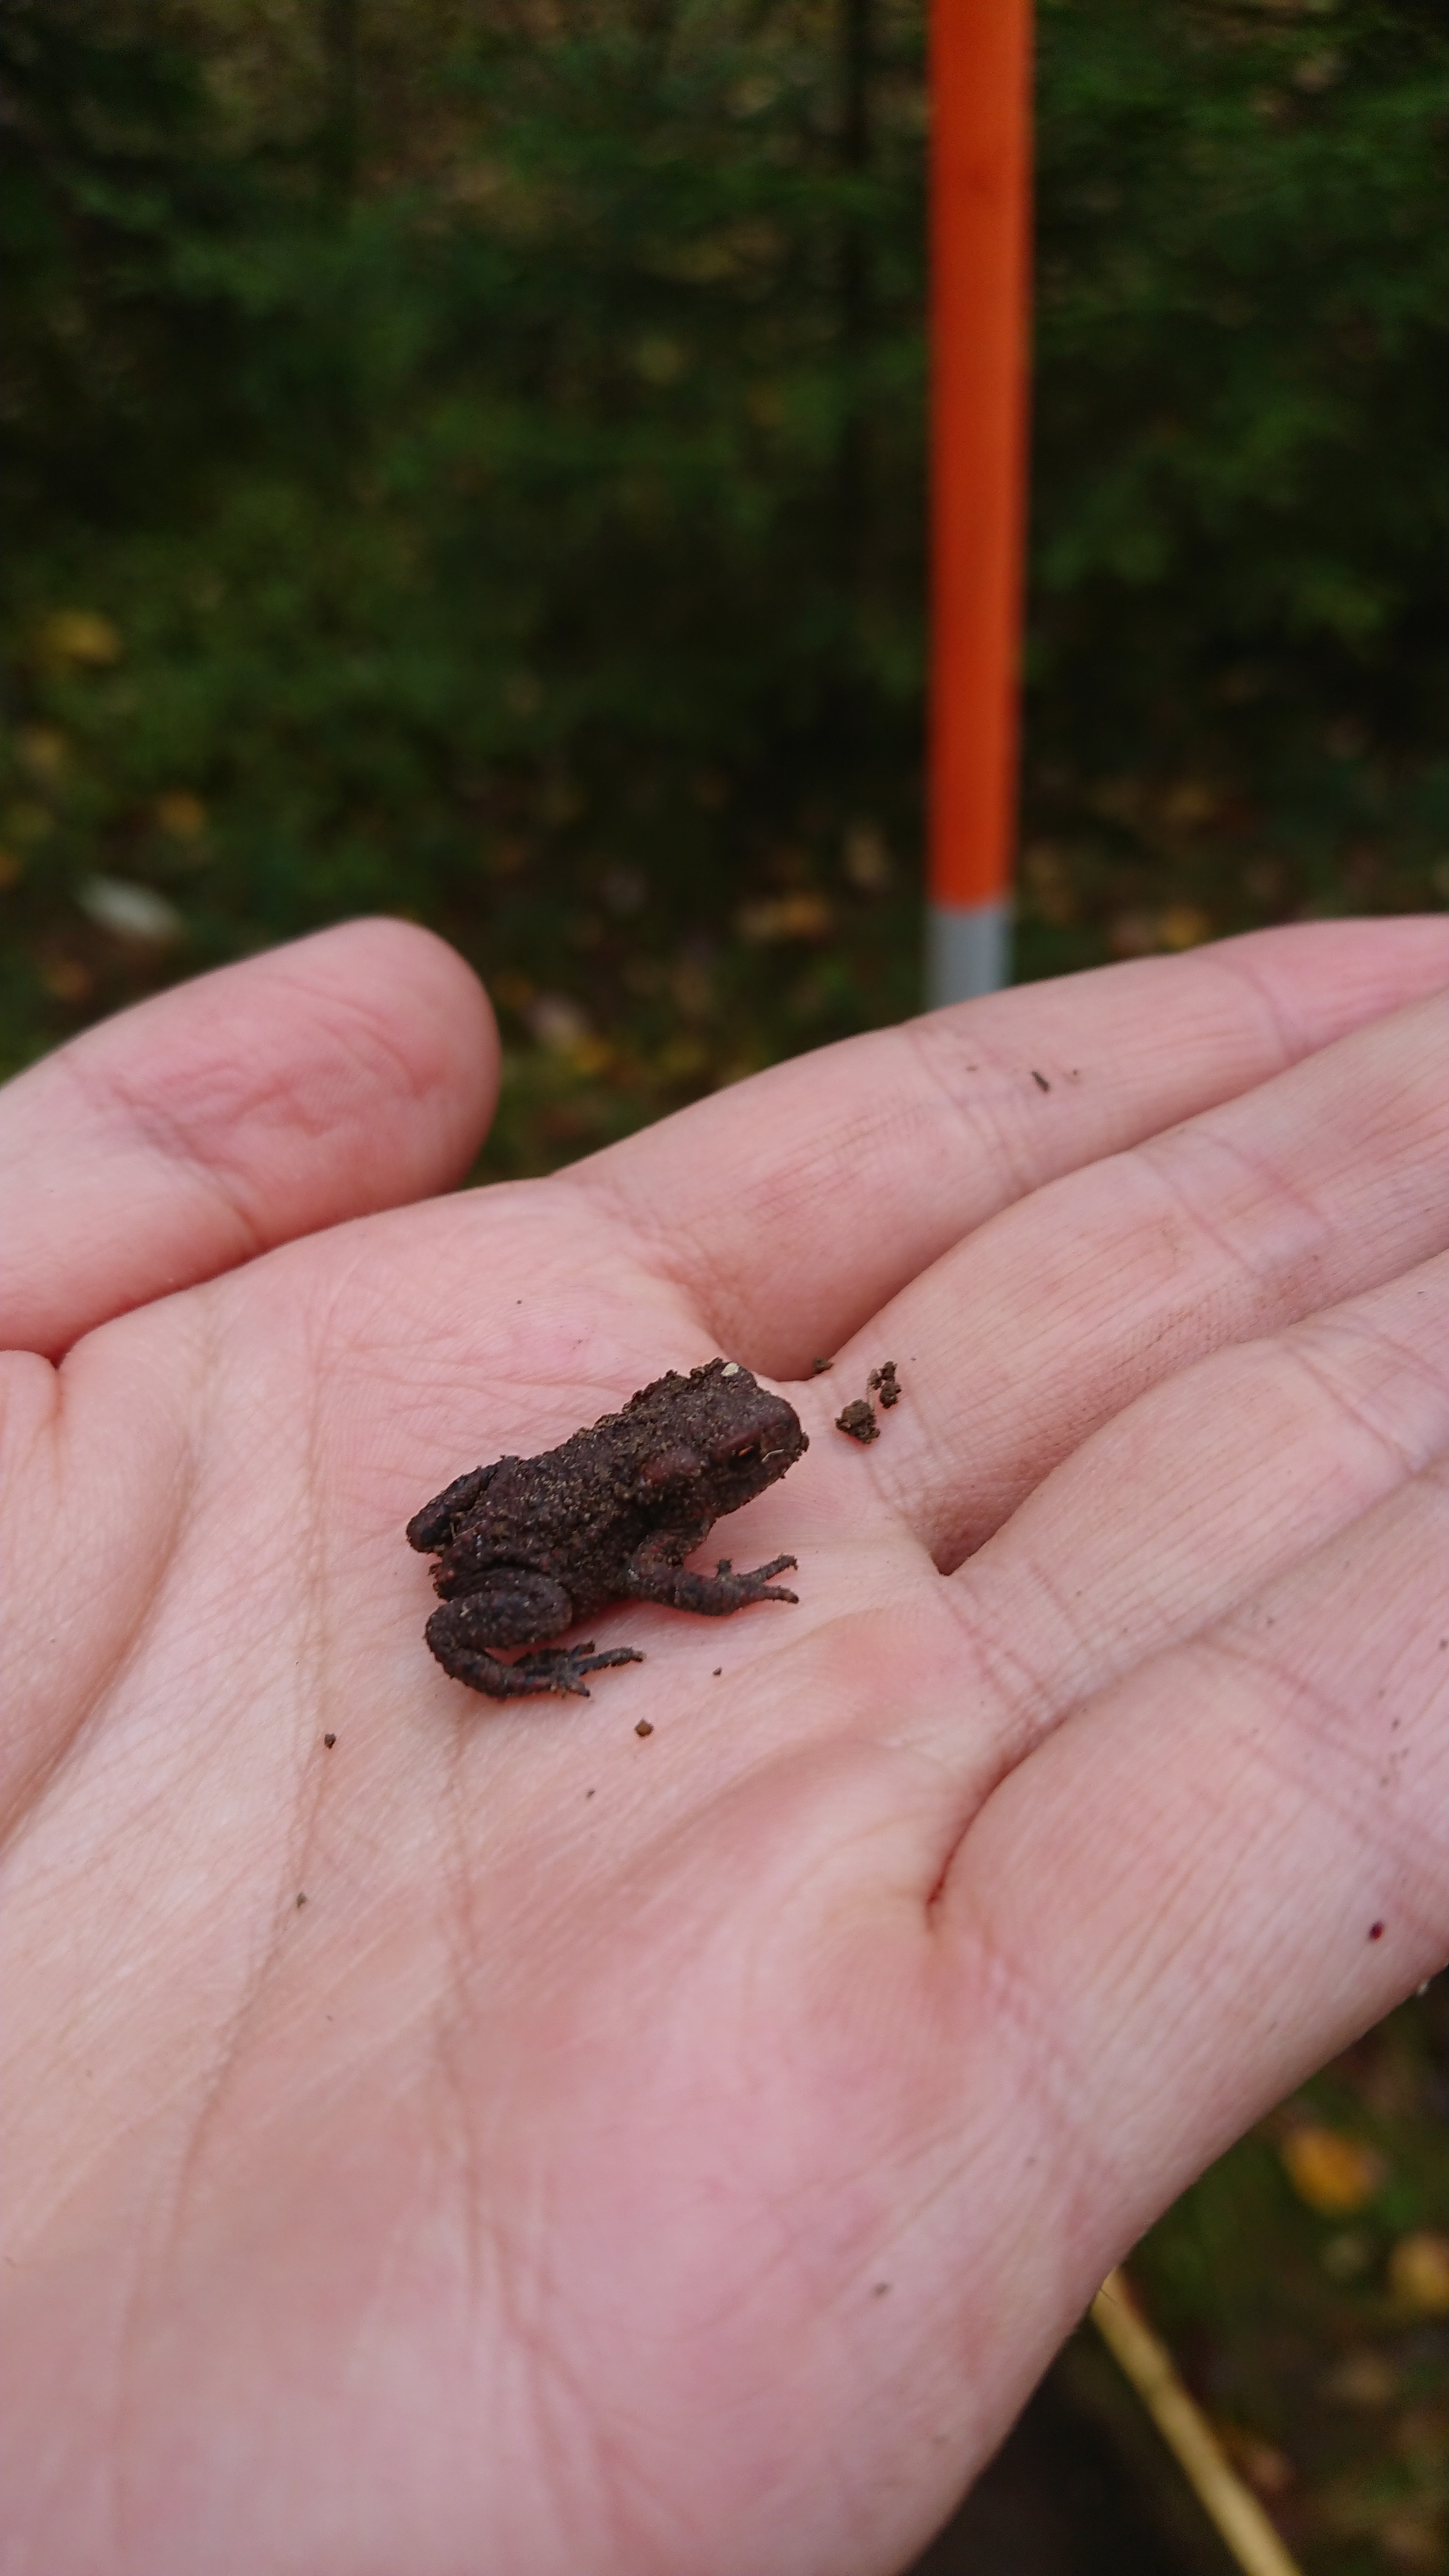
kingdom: Animalia
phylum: Chordata
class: Amphibia
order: Anura
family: Bufonidae
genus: Bufo
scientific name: Bufo bufo
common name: Common toad
